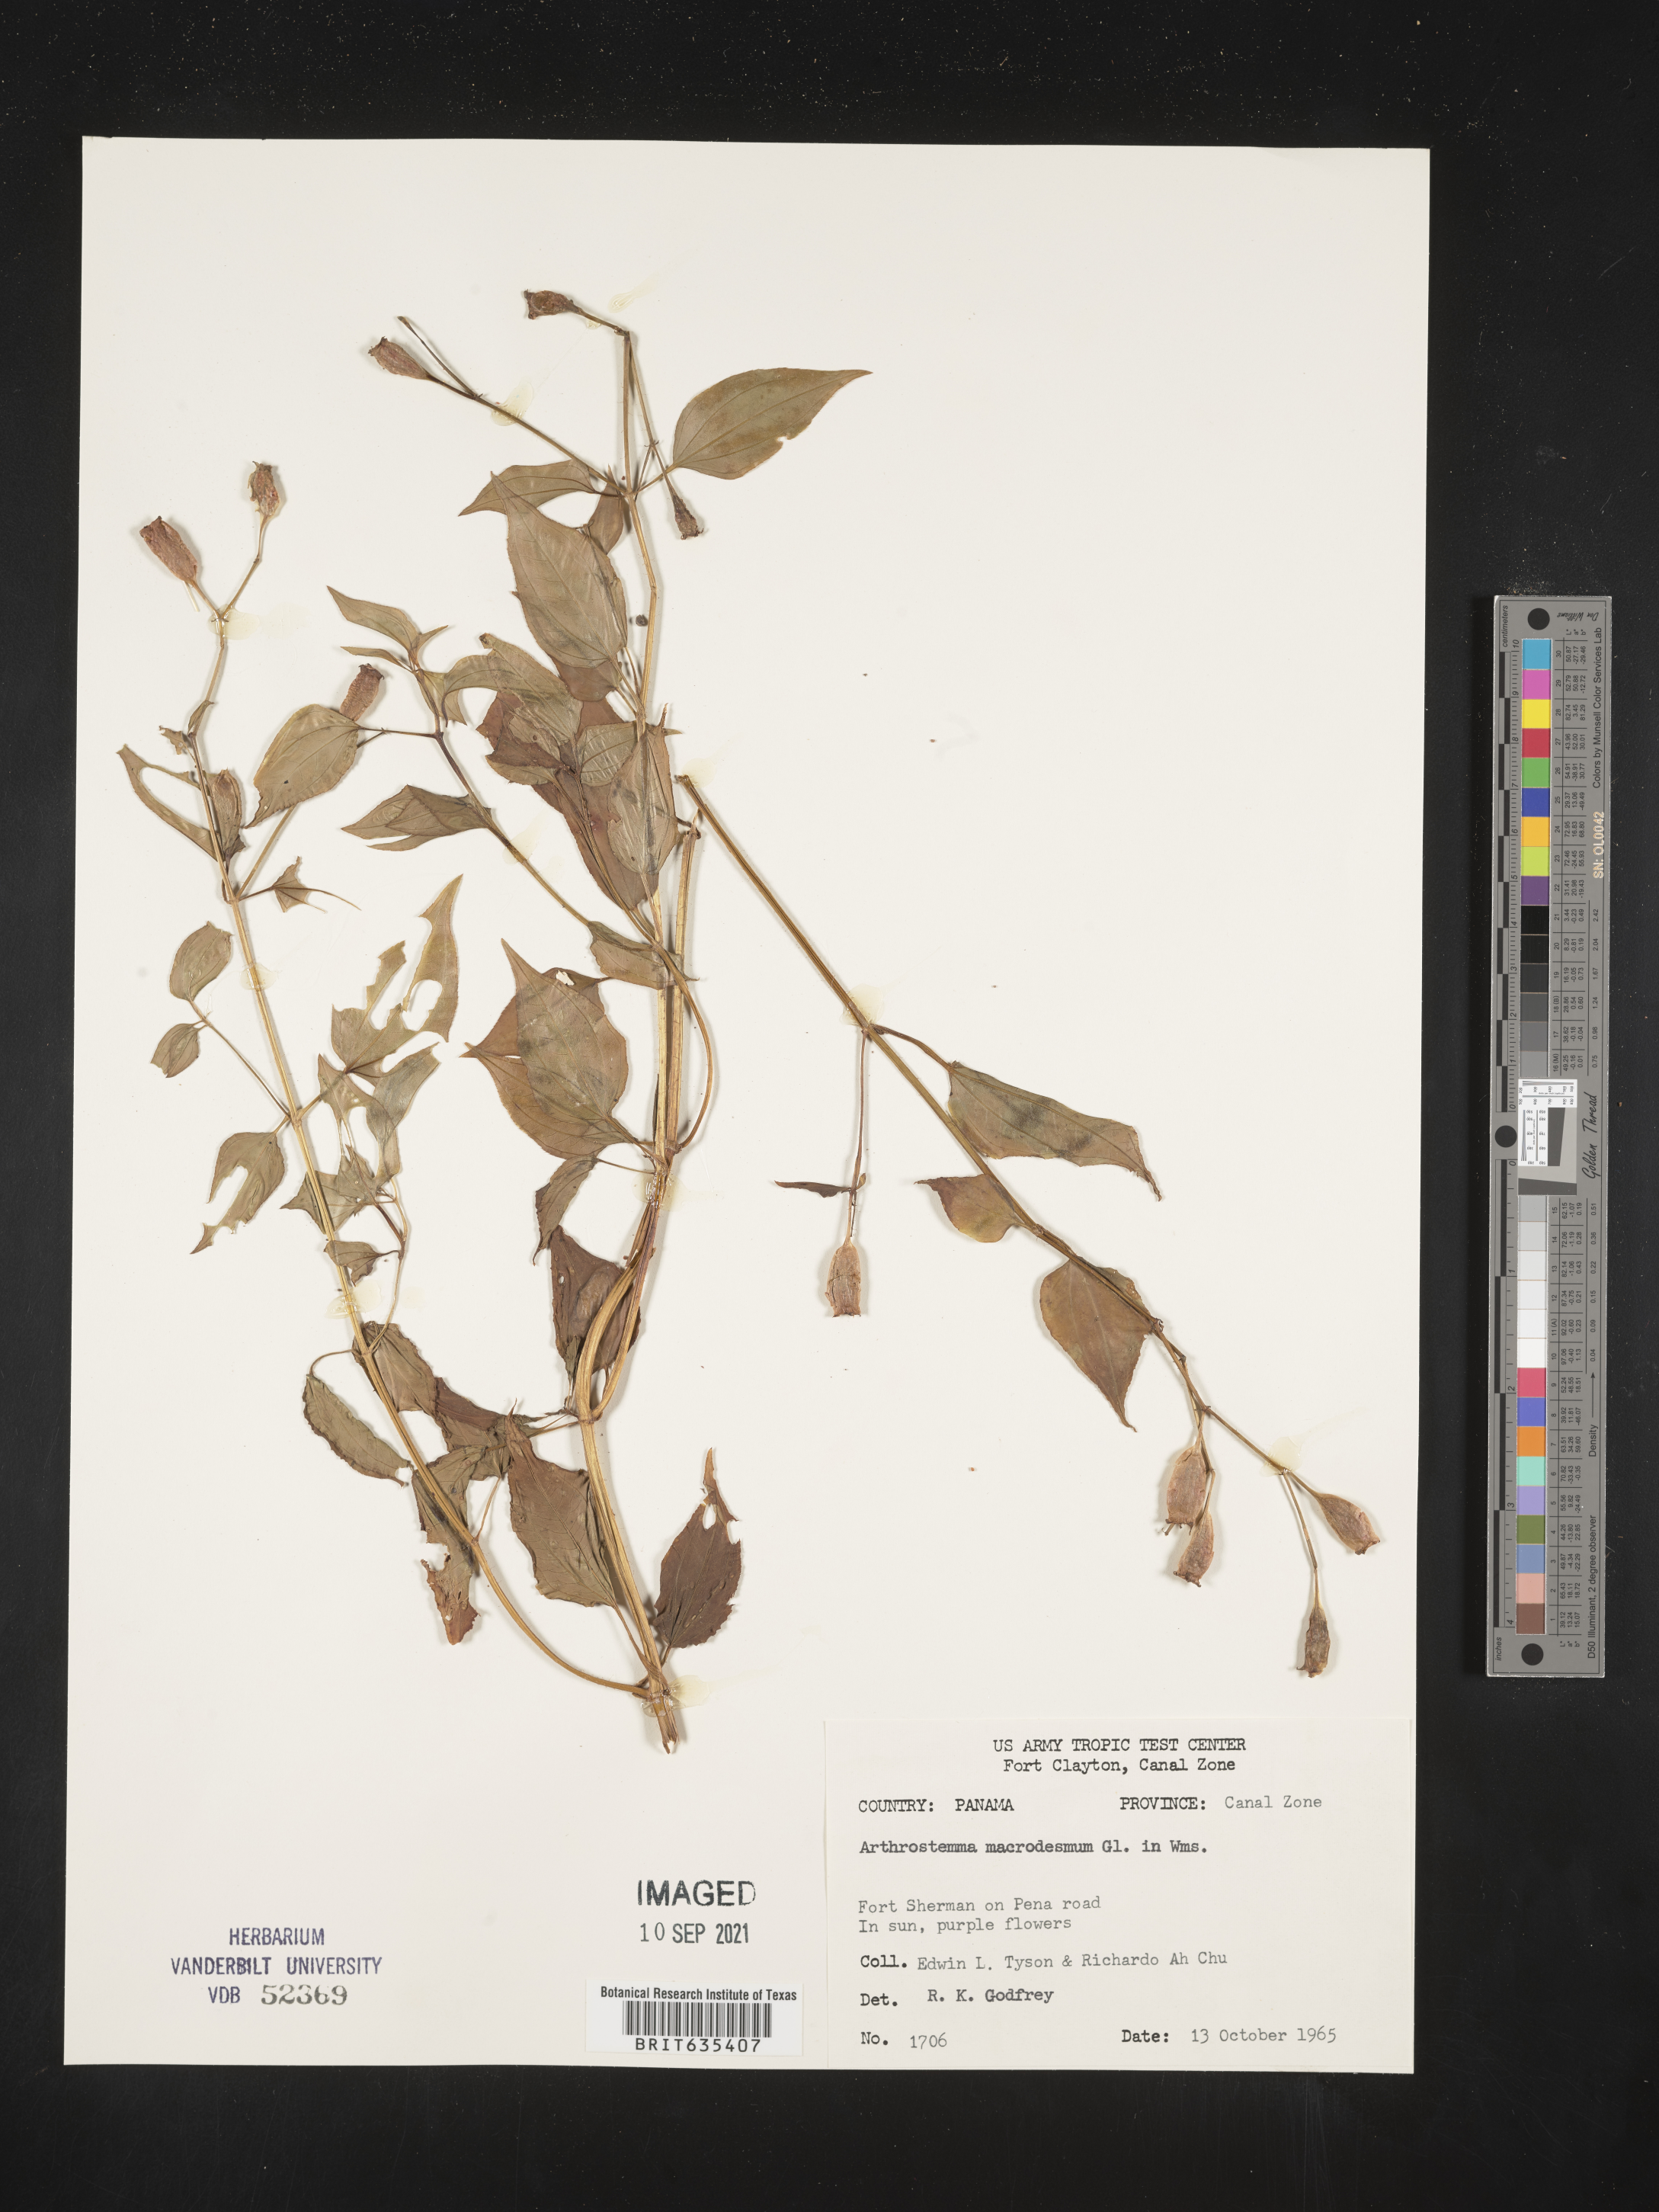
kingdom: Plantae
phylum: Tracheophyta
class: Magnoliopsida
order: Myrtales
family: Melastomataceae
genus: Arthrostemma
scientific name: Arthrostemma
